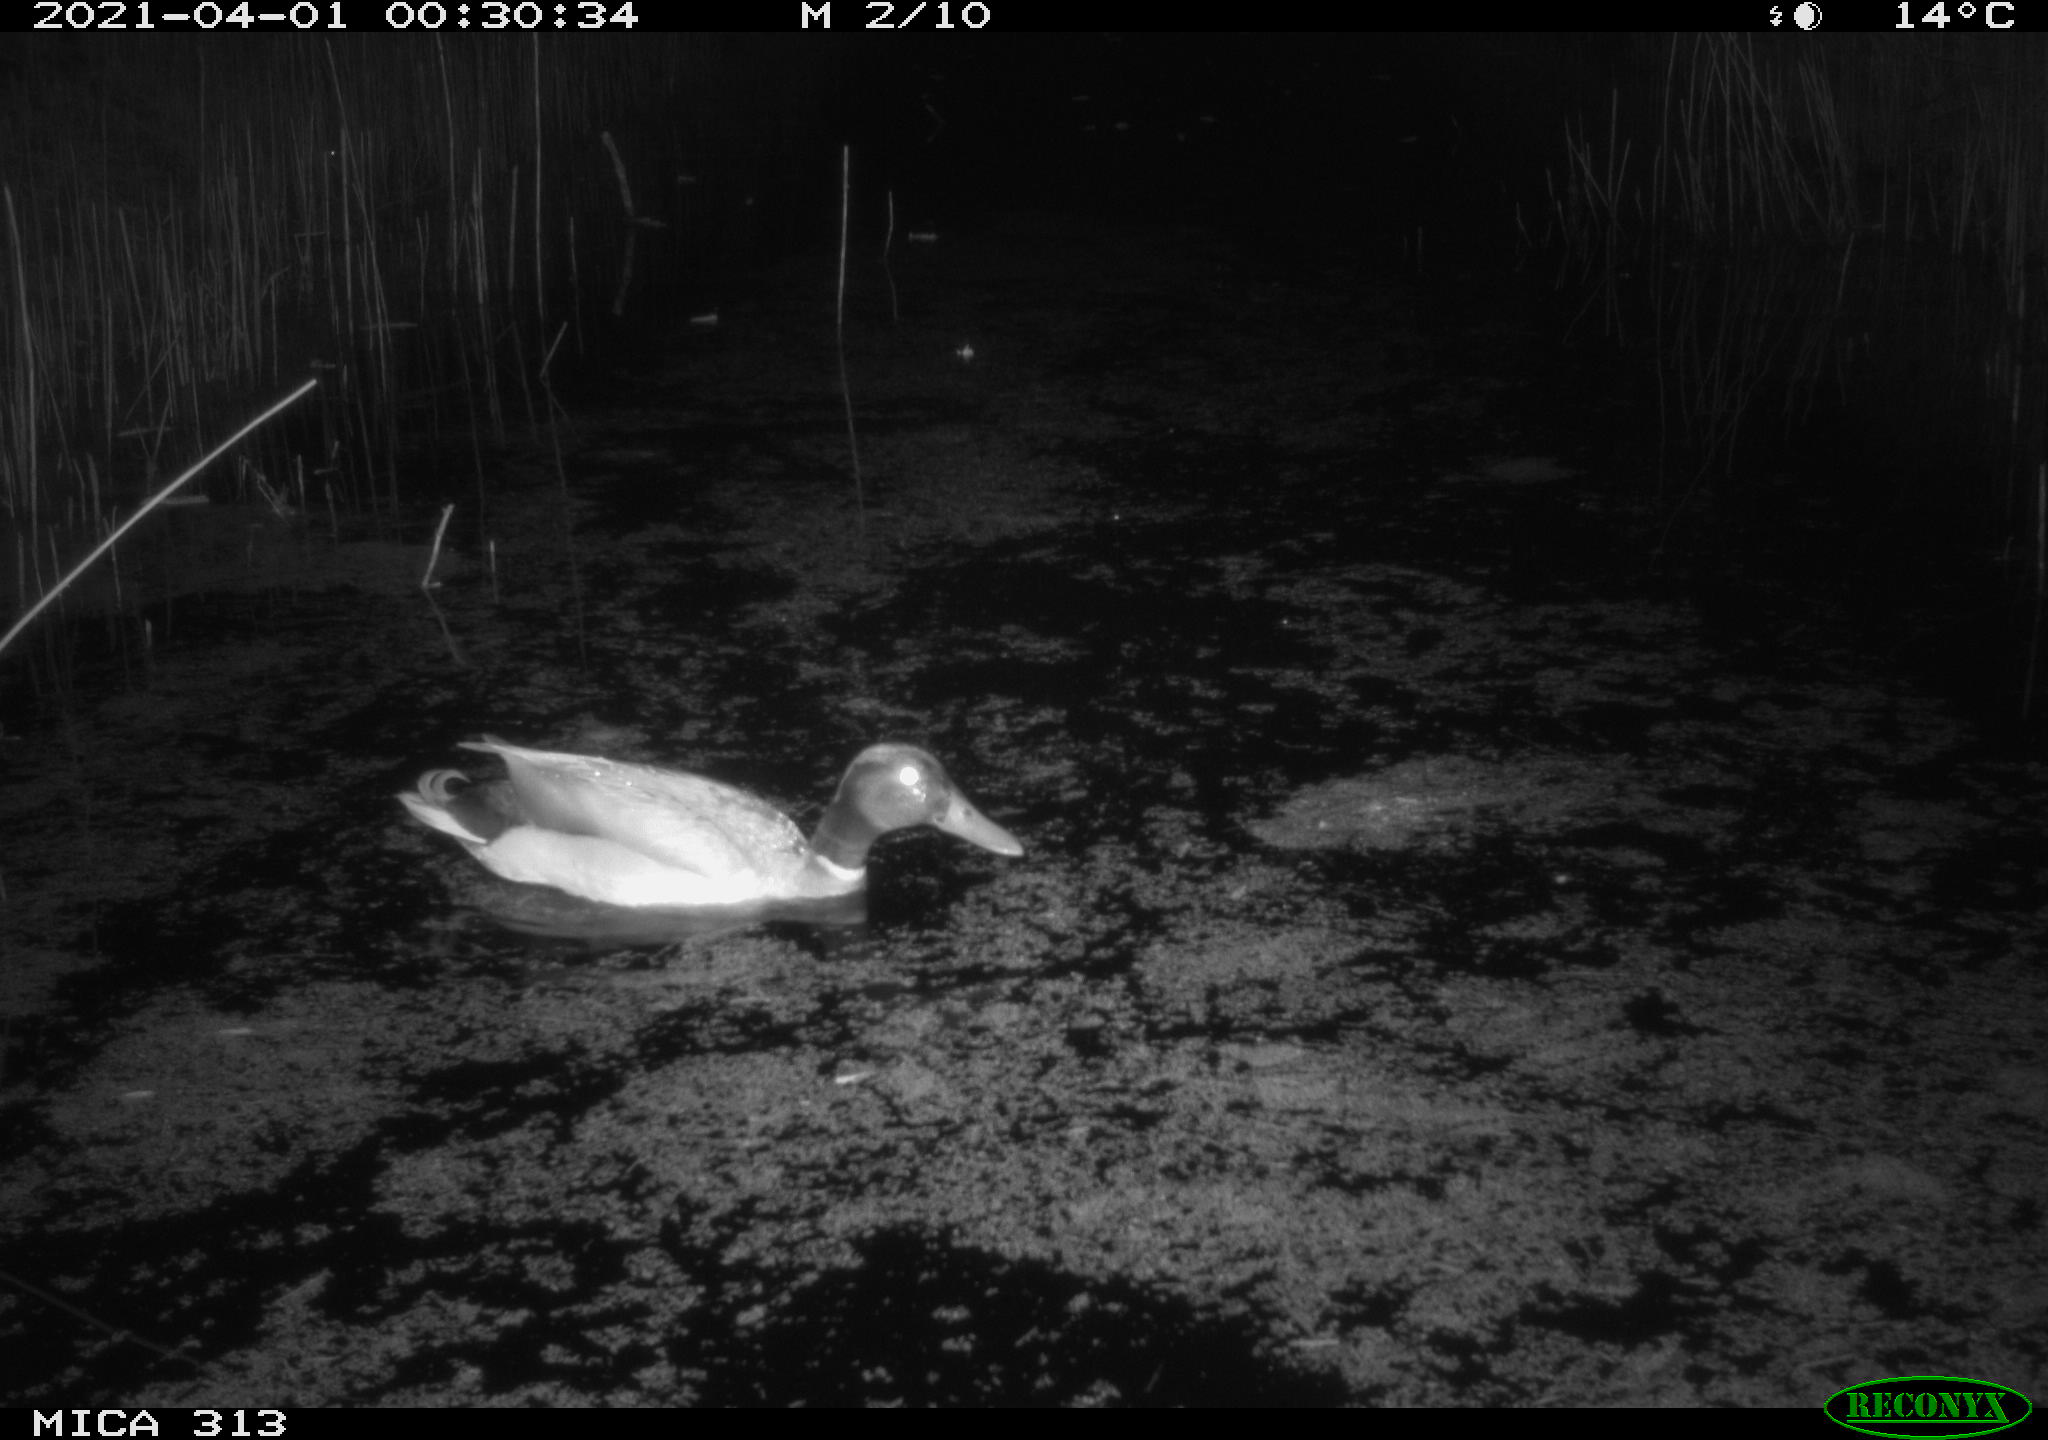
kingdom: Animalia
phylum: Chordata
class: Aves
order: Anseriformes
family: Anatidae
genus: Anas
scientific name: Anas platyrhynchos
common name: Mallard
